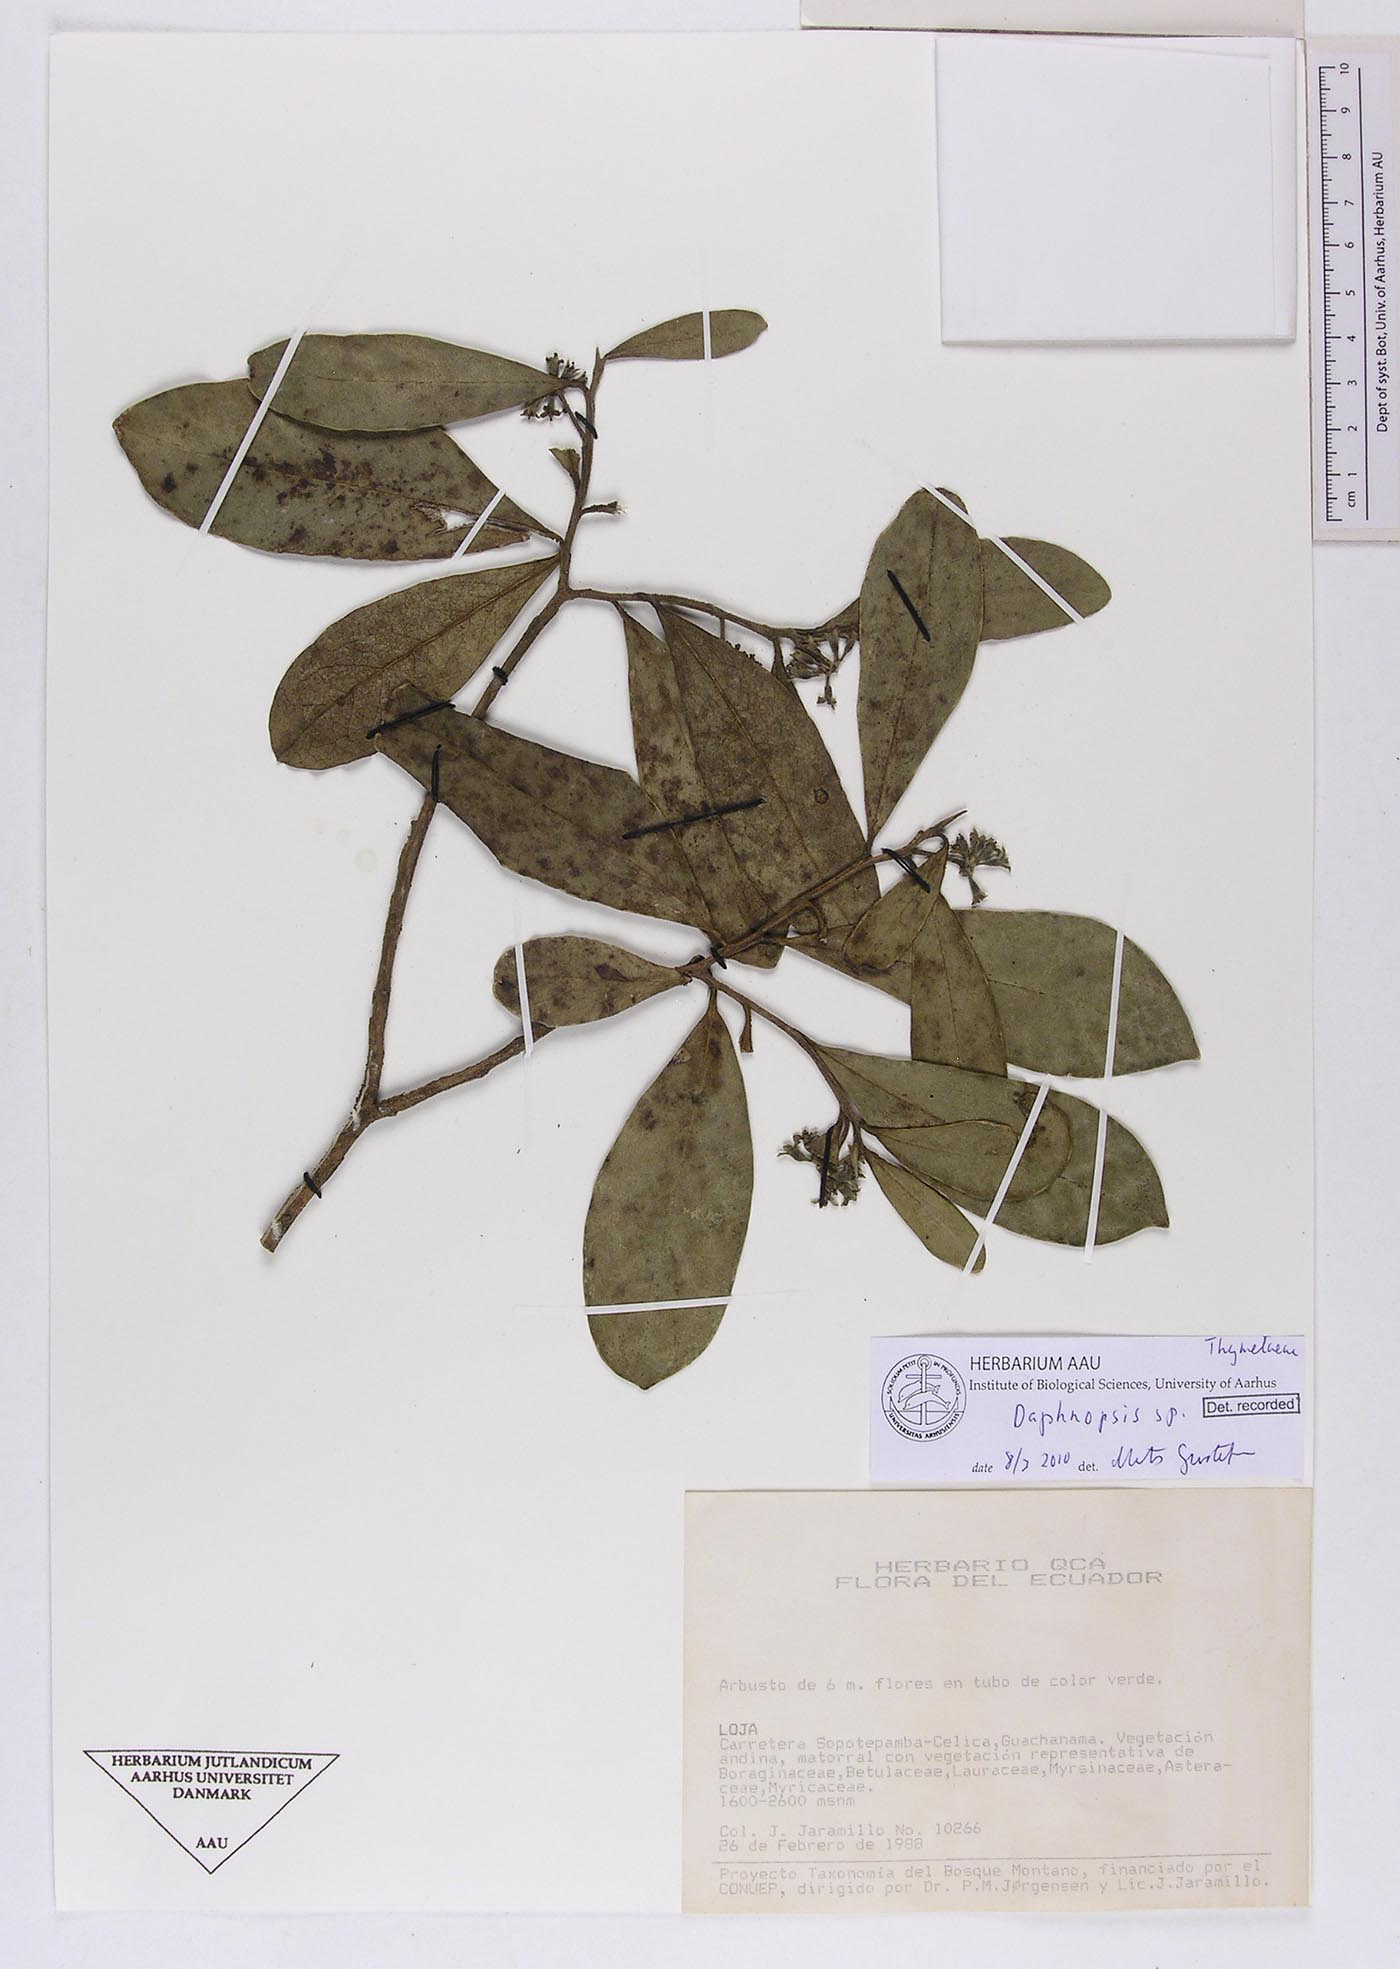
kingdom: Plantae
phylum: Tracheophyta
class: Magnoliopsida
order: Malvales
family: Thymelaeaceae
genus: Daphnopsis
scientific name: Daphnopsis
